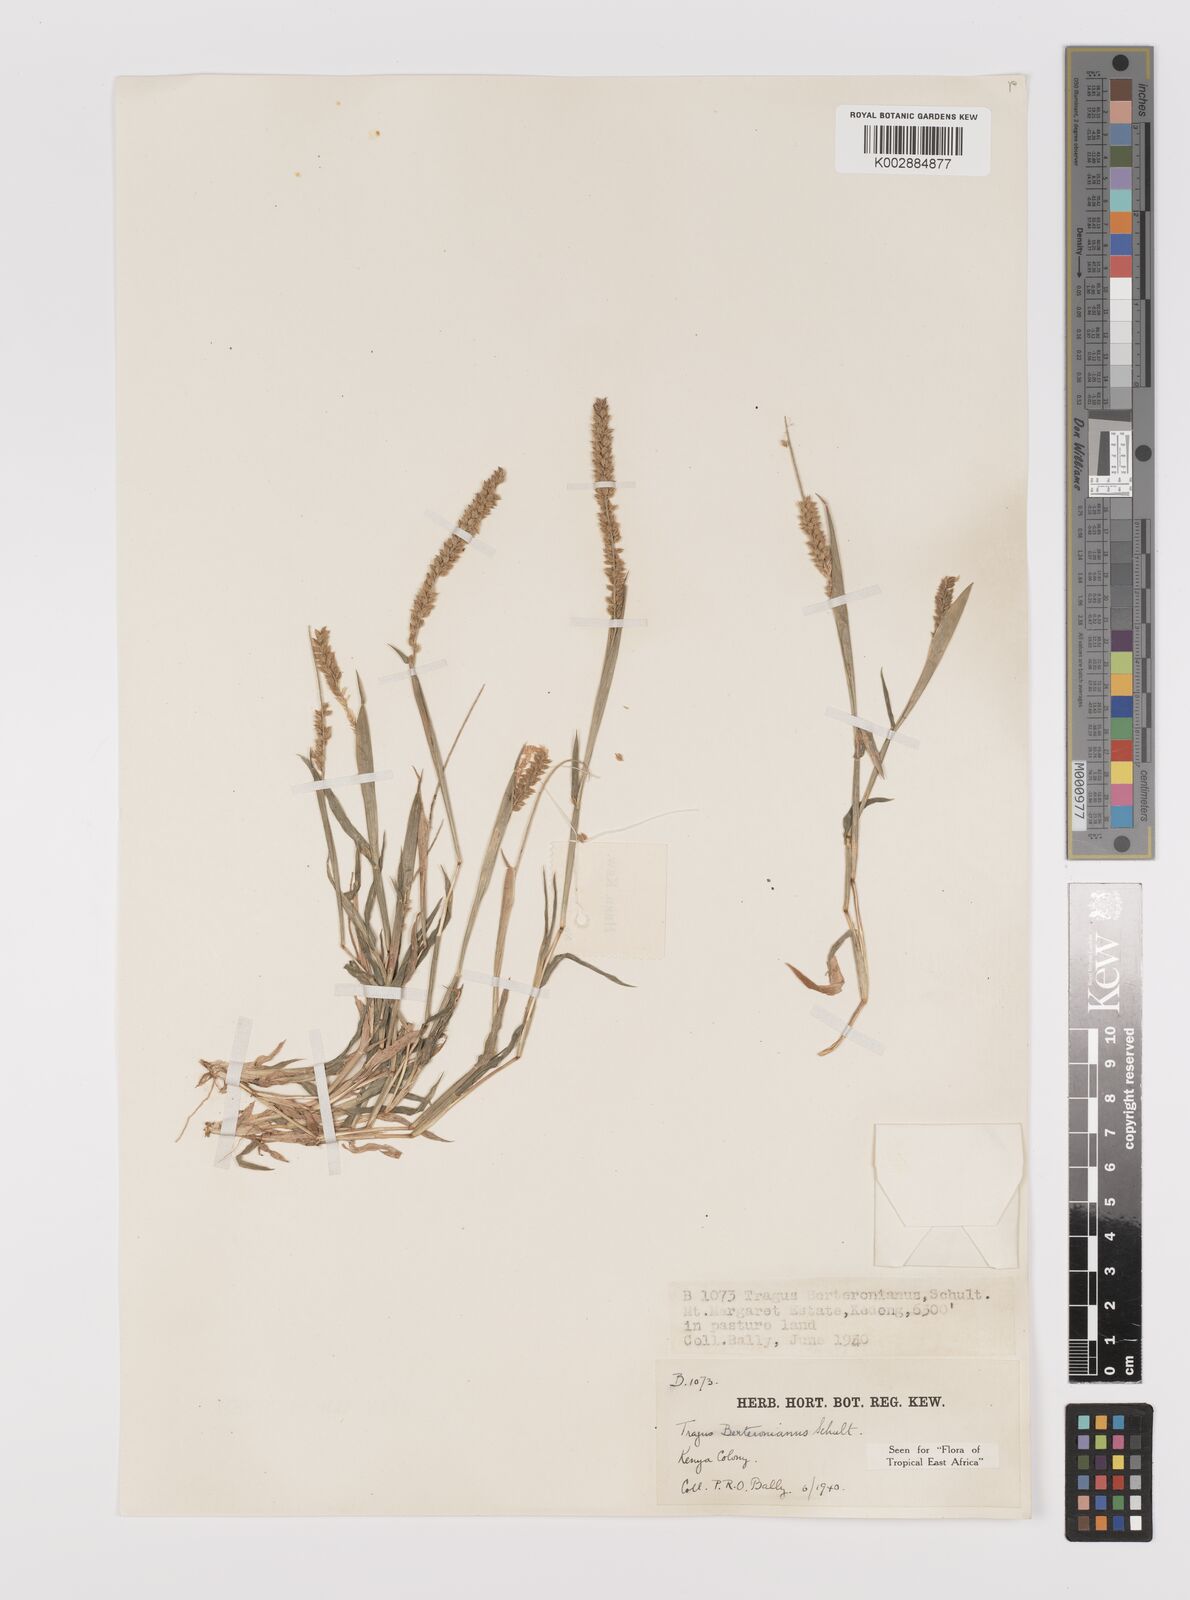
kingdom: Plantae
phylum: Tracheophyta
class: Liliopsida
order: Poales
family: Poaceae
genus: Tragus
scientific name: Tragus berteronianus
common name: African bur-grass
